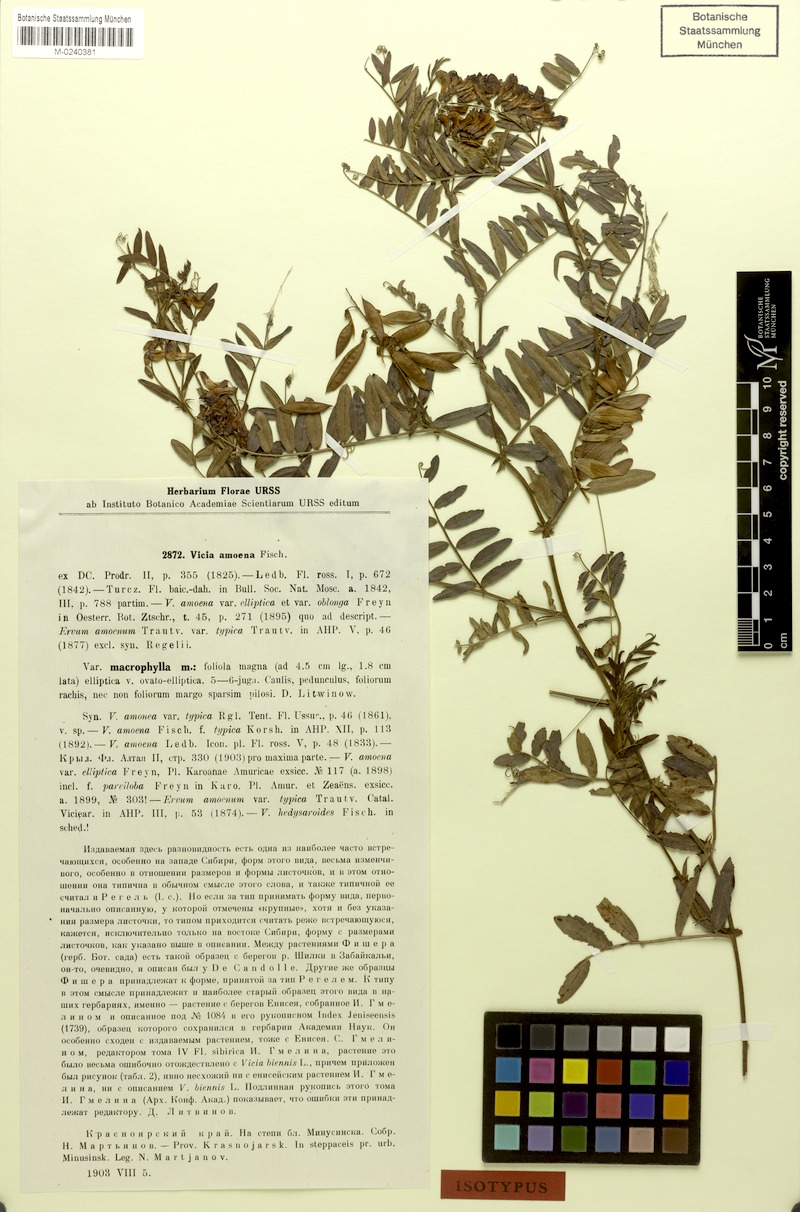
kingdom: Plantae
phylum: Tracheophyta
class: Magnoliopsida
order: Fabales
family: Fabaceae
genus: Vicia
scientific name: Vicia amoena
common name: Cheder ebs
